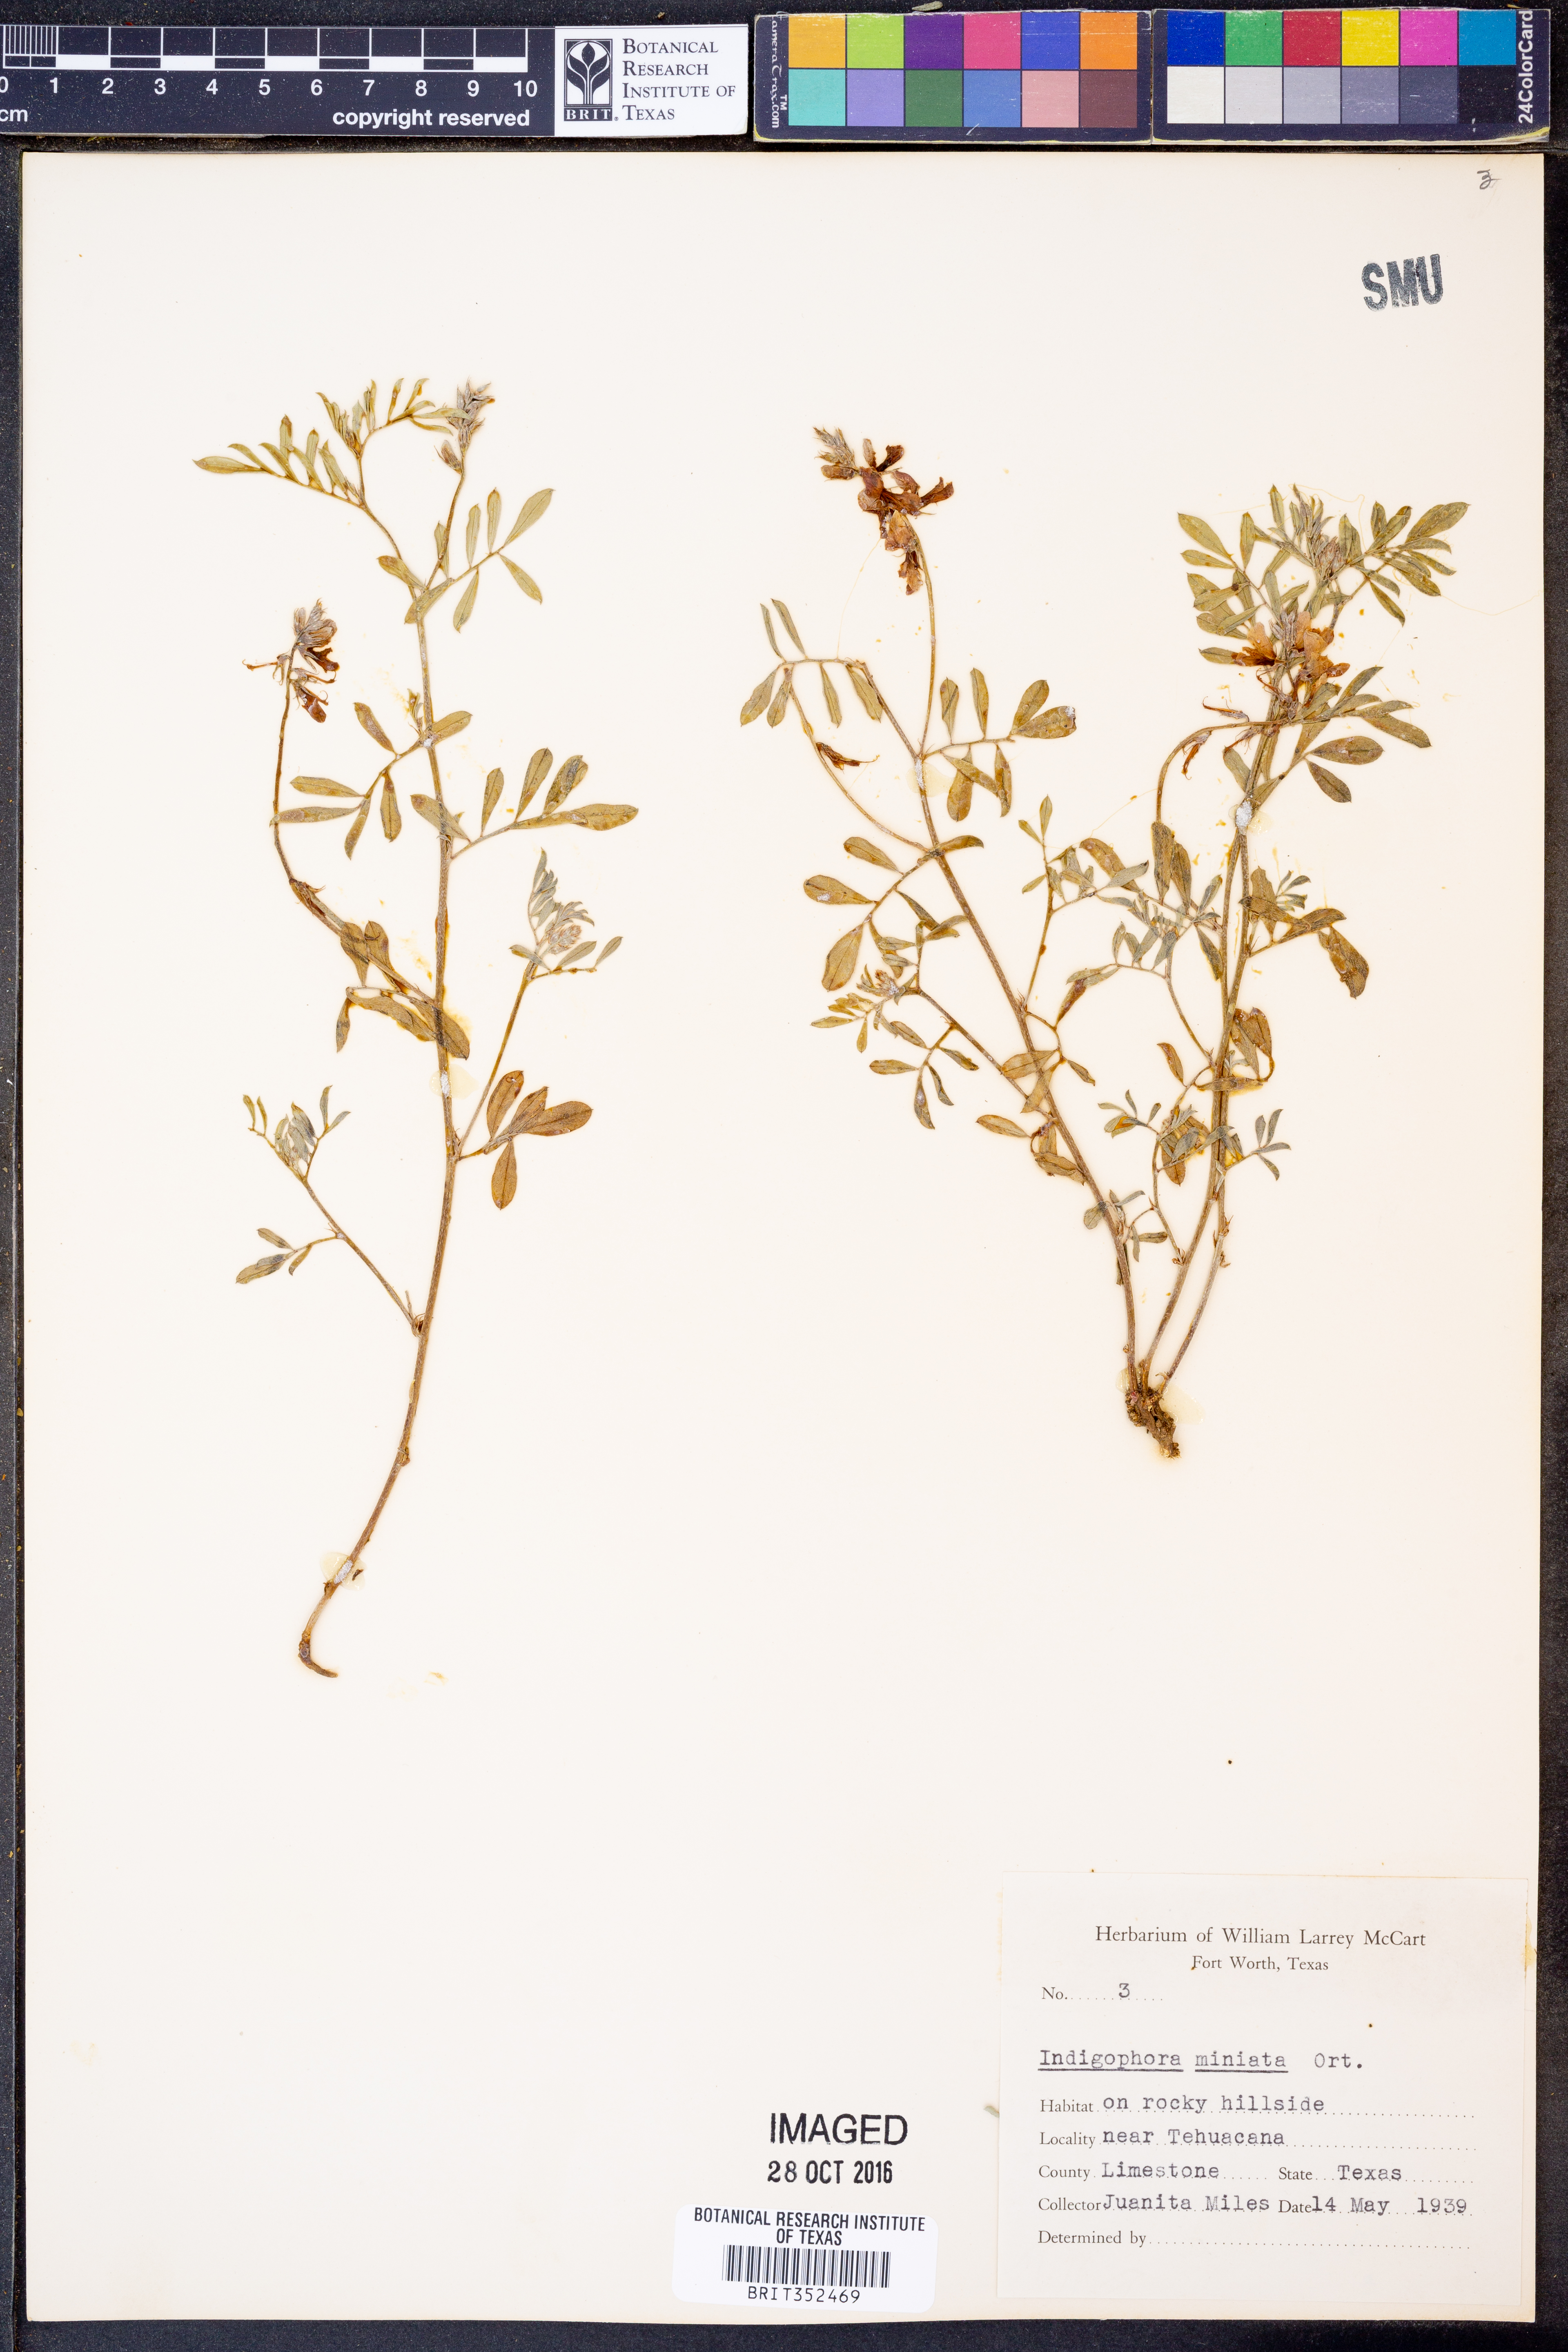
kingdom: Plantae
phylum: Tracheophyta
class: Magnoliopsida
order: Fabales
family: Fabaceae
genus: Indigofera
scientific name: Indigofera miniata
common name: Coast indigo
